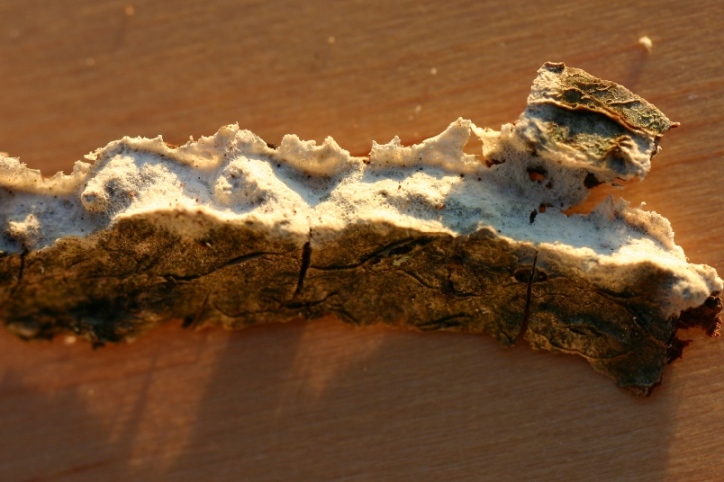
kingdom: Fungi
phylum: Basidiomycota
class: Agaricomycetes
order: Polyporales
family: Hyphodermataceae
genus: Hyphoderma
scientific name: Hyphoderma setigerum
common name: håret kalkskind
